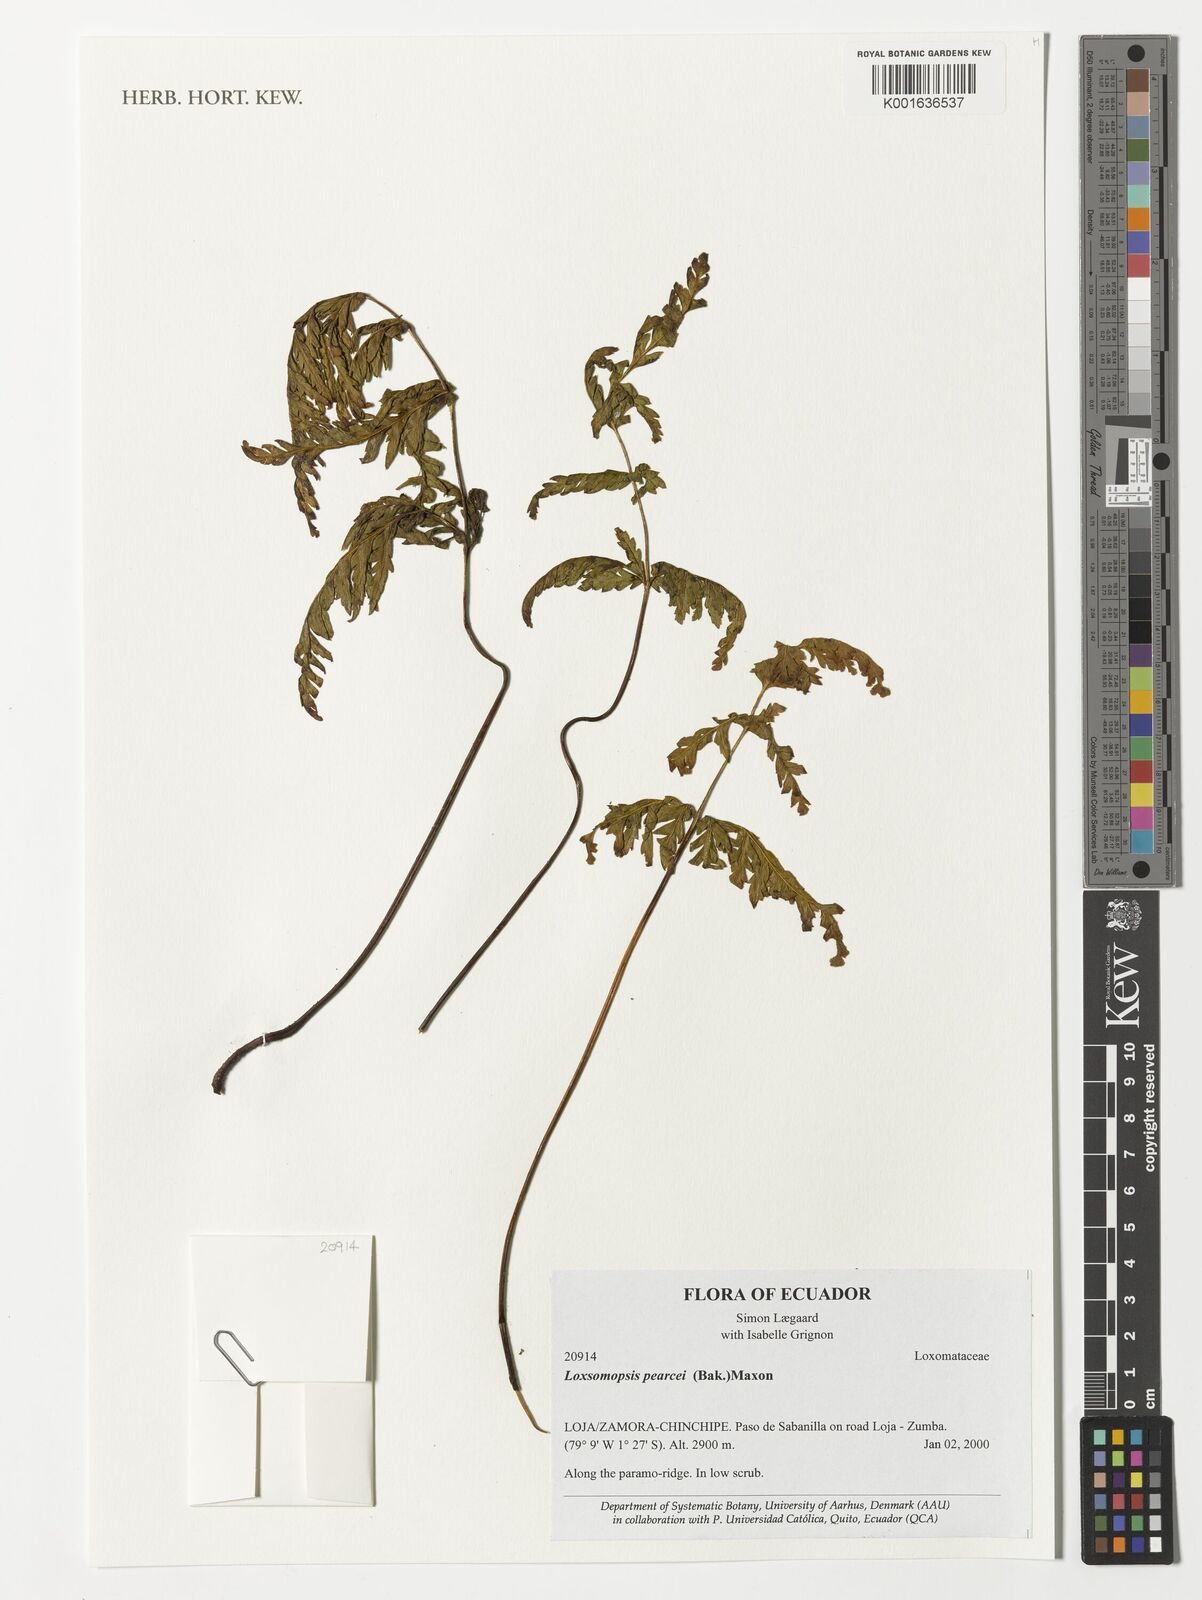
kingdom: Plantae
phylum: Tracheophyta
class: Polypodiopsida
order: Cyatheales
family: Loxsomataceae
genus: Loxsomopsis
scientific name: Loxsomopsis pearcei
